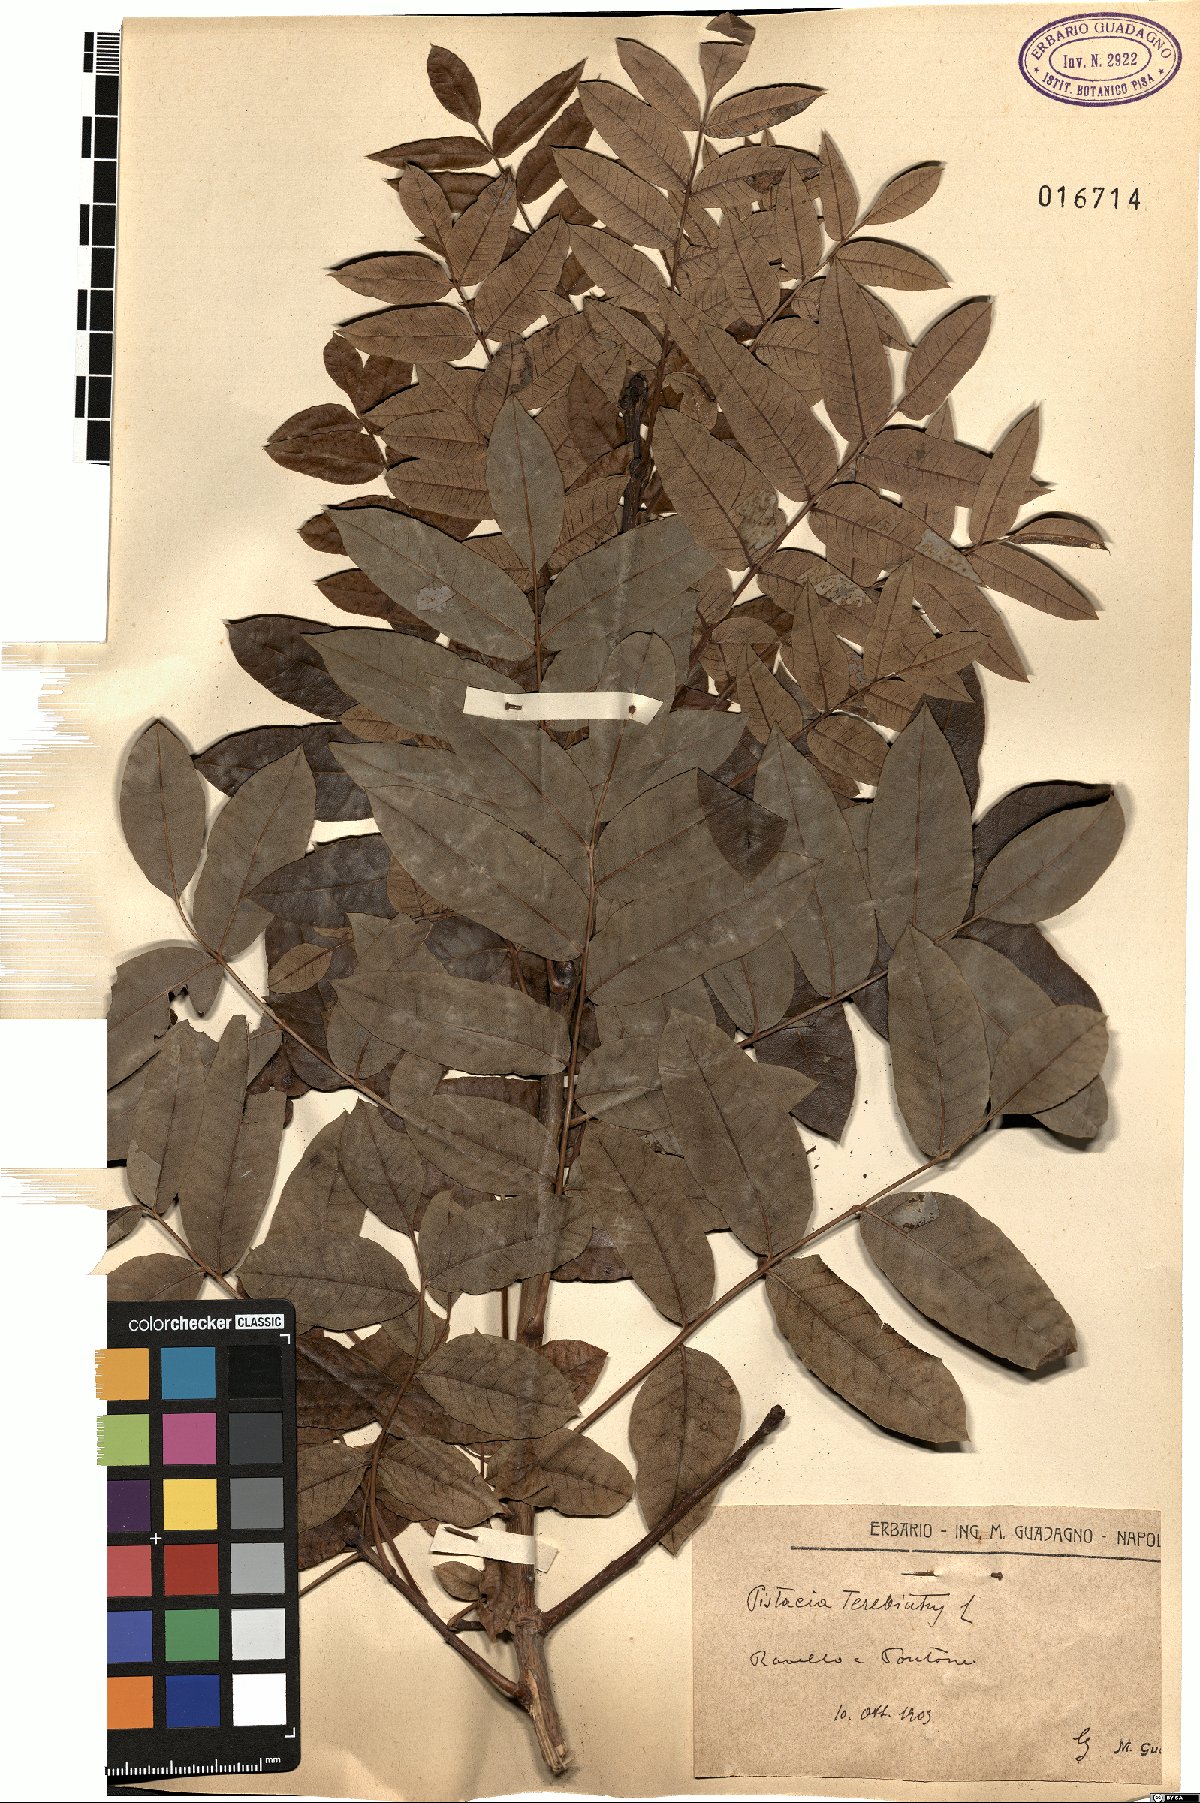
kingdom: Plantae
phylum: Tracheophyta
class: Magnoliopsida
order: Sapindales
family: Anacardiaceae
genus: Pistacia
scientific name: Pistacia terebinthus
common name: Terebinth
